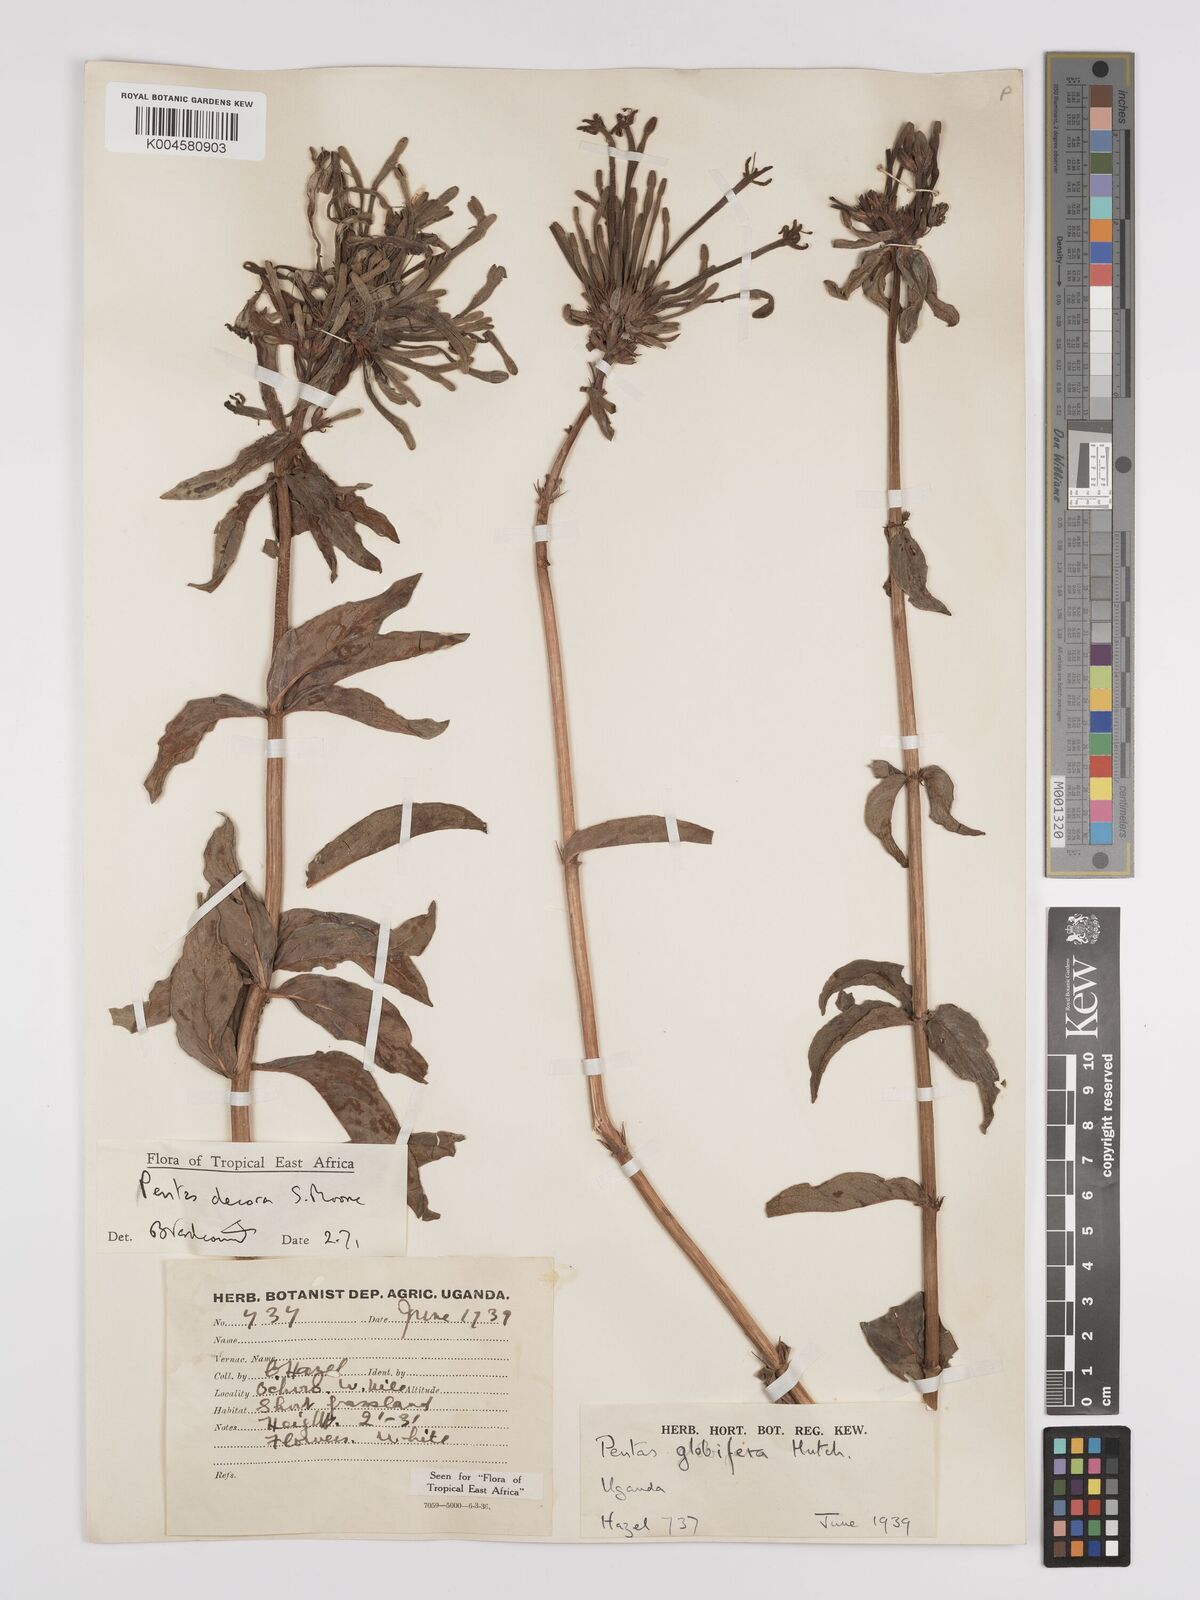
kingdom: Plantae
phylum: Tracheophyta
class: Magnoliopsida
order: Gentianales
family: Rubiaceae
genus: Dolichopentas
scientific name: Dolichopentas decora
